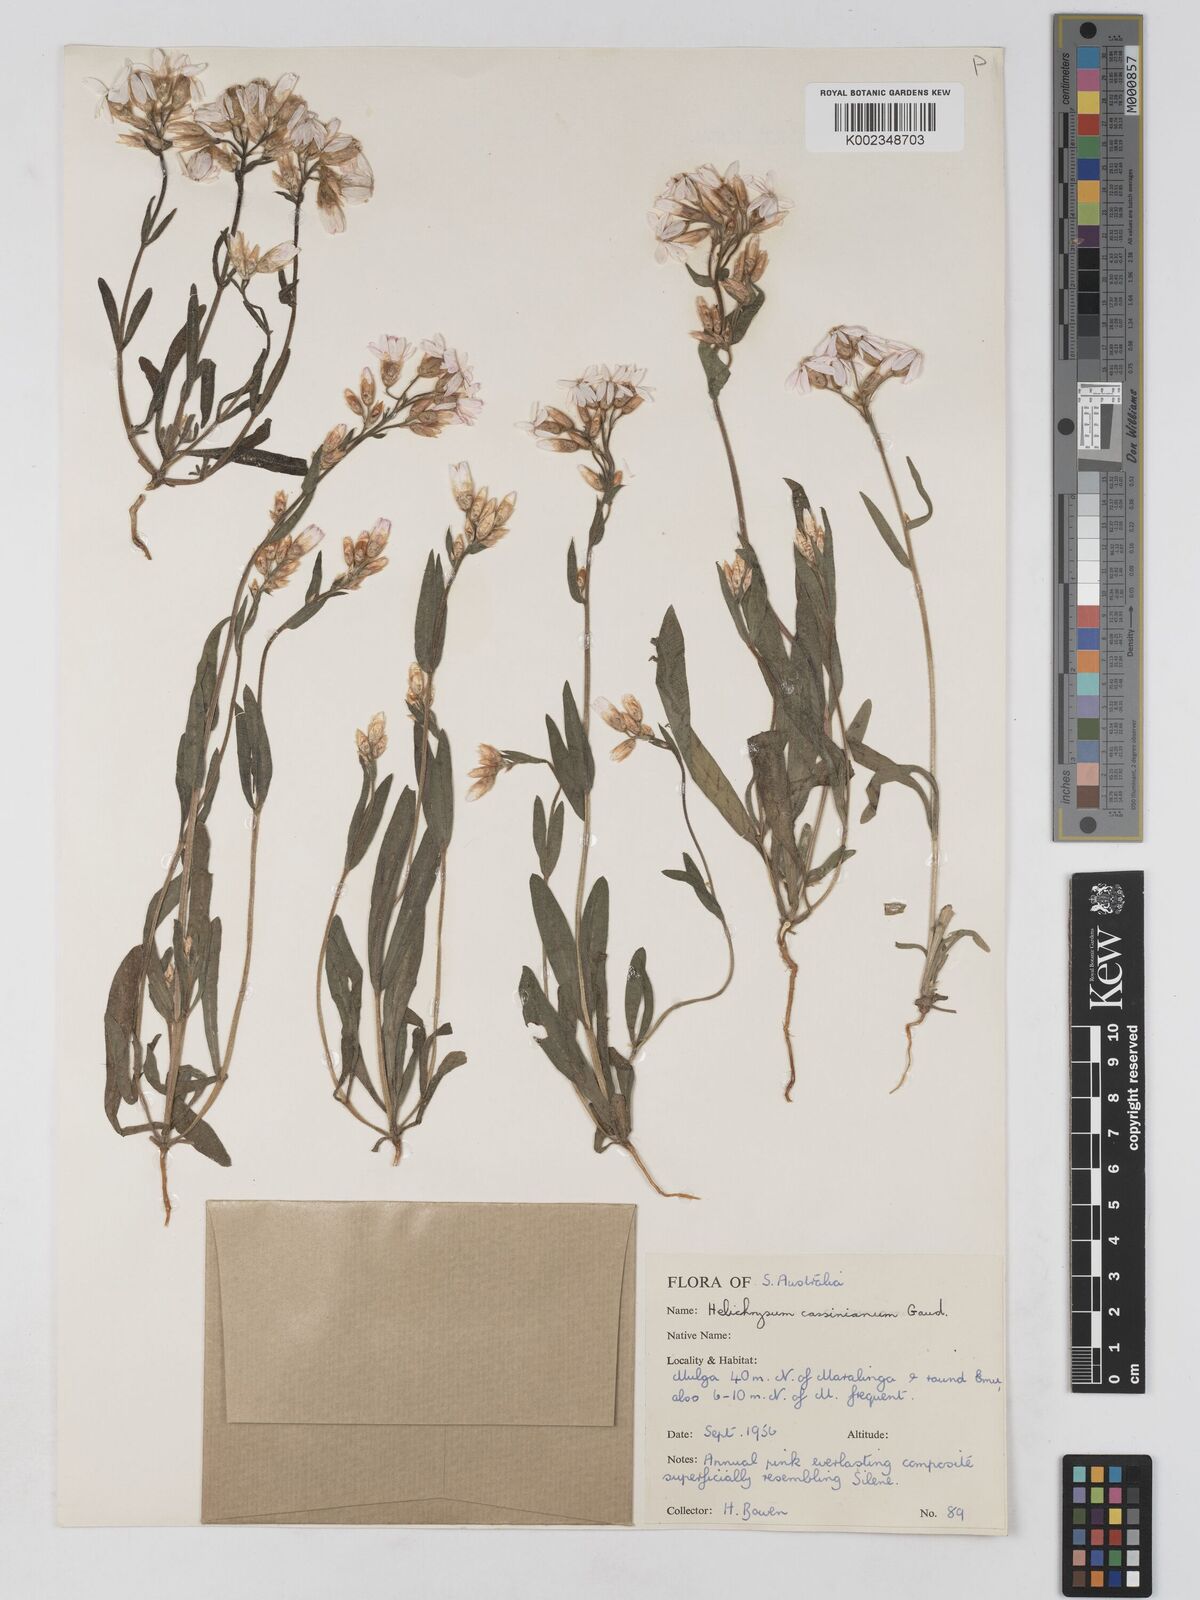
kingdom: Plantae
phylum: Tracheophyta
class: Magnoliopsida
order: Asterales
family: Asteraceae
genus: Schoenia
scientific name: Schoenia cassiniana
